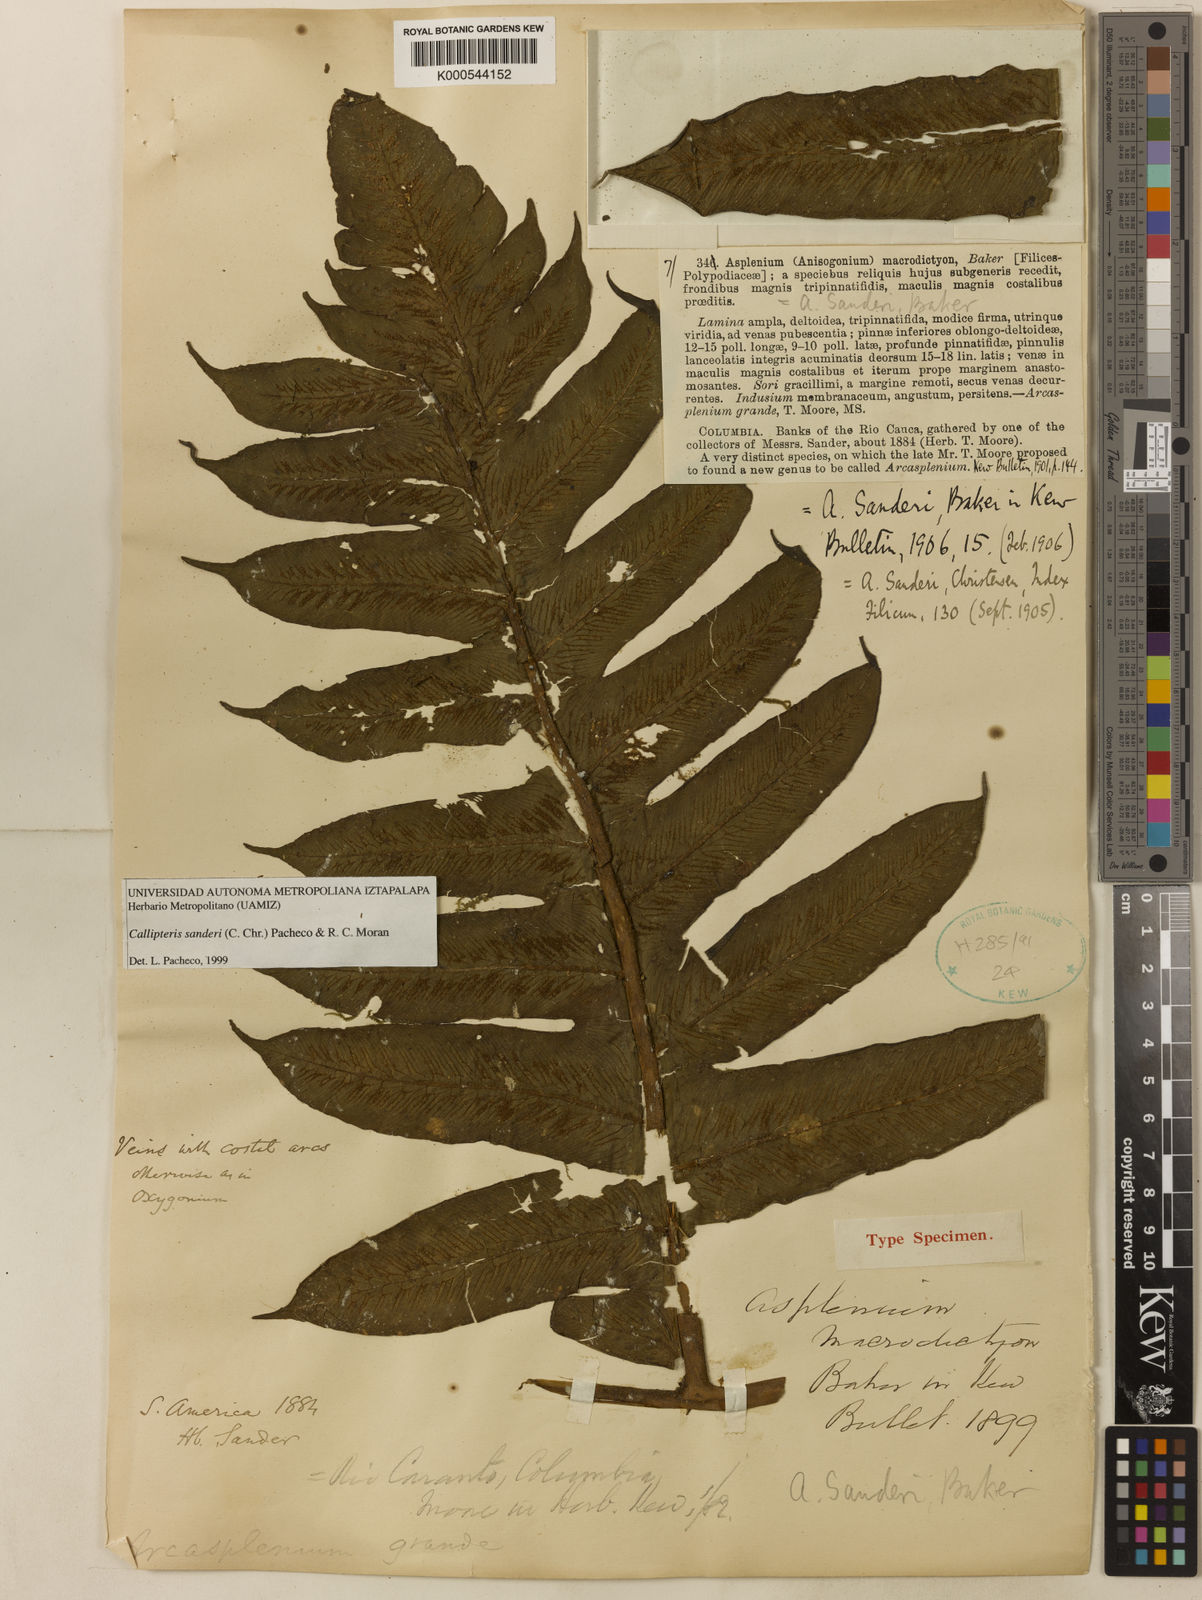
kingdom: Plantae
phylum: Tracheophyta
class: Polypodiopsida
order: Polypodiales
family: Athyriaceae
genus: Diplazium
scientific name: Diplazium sanderi
